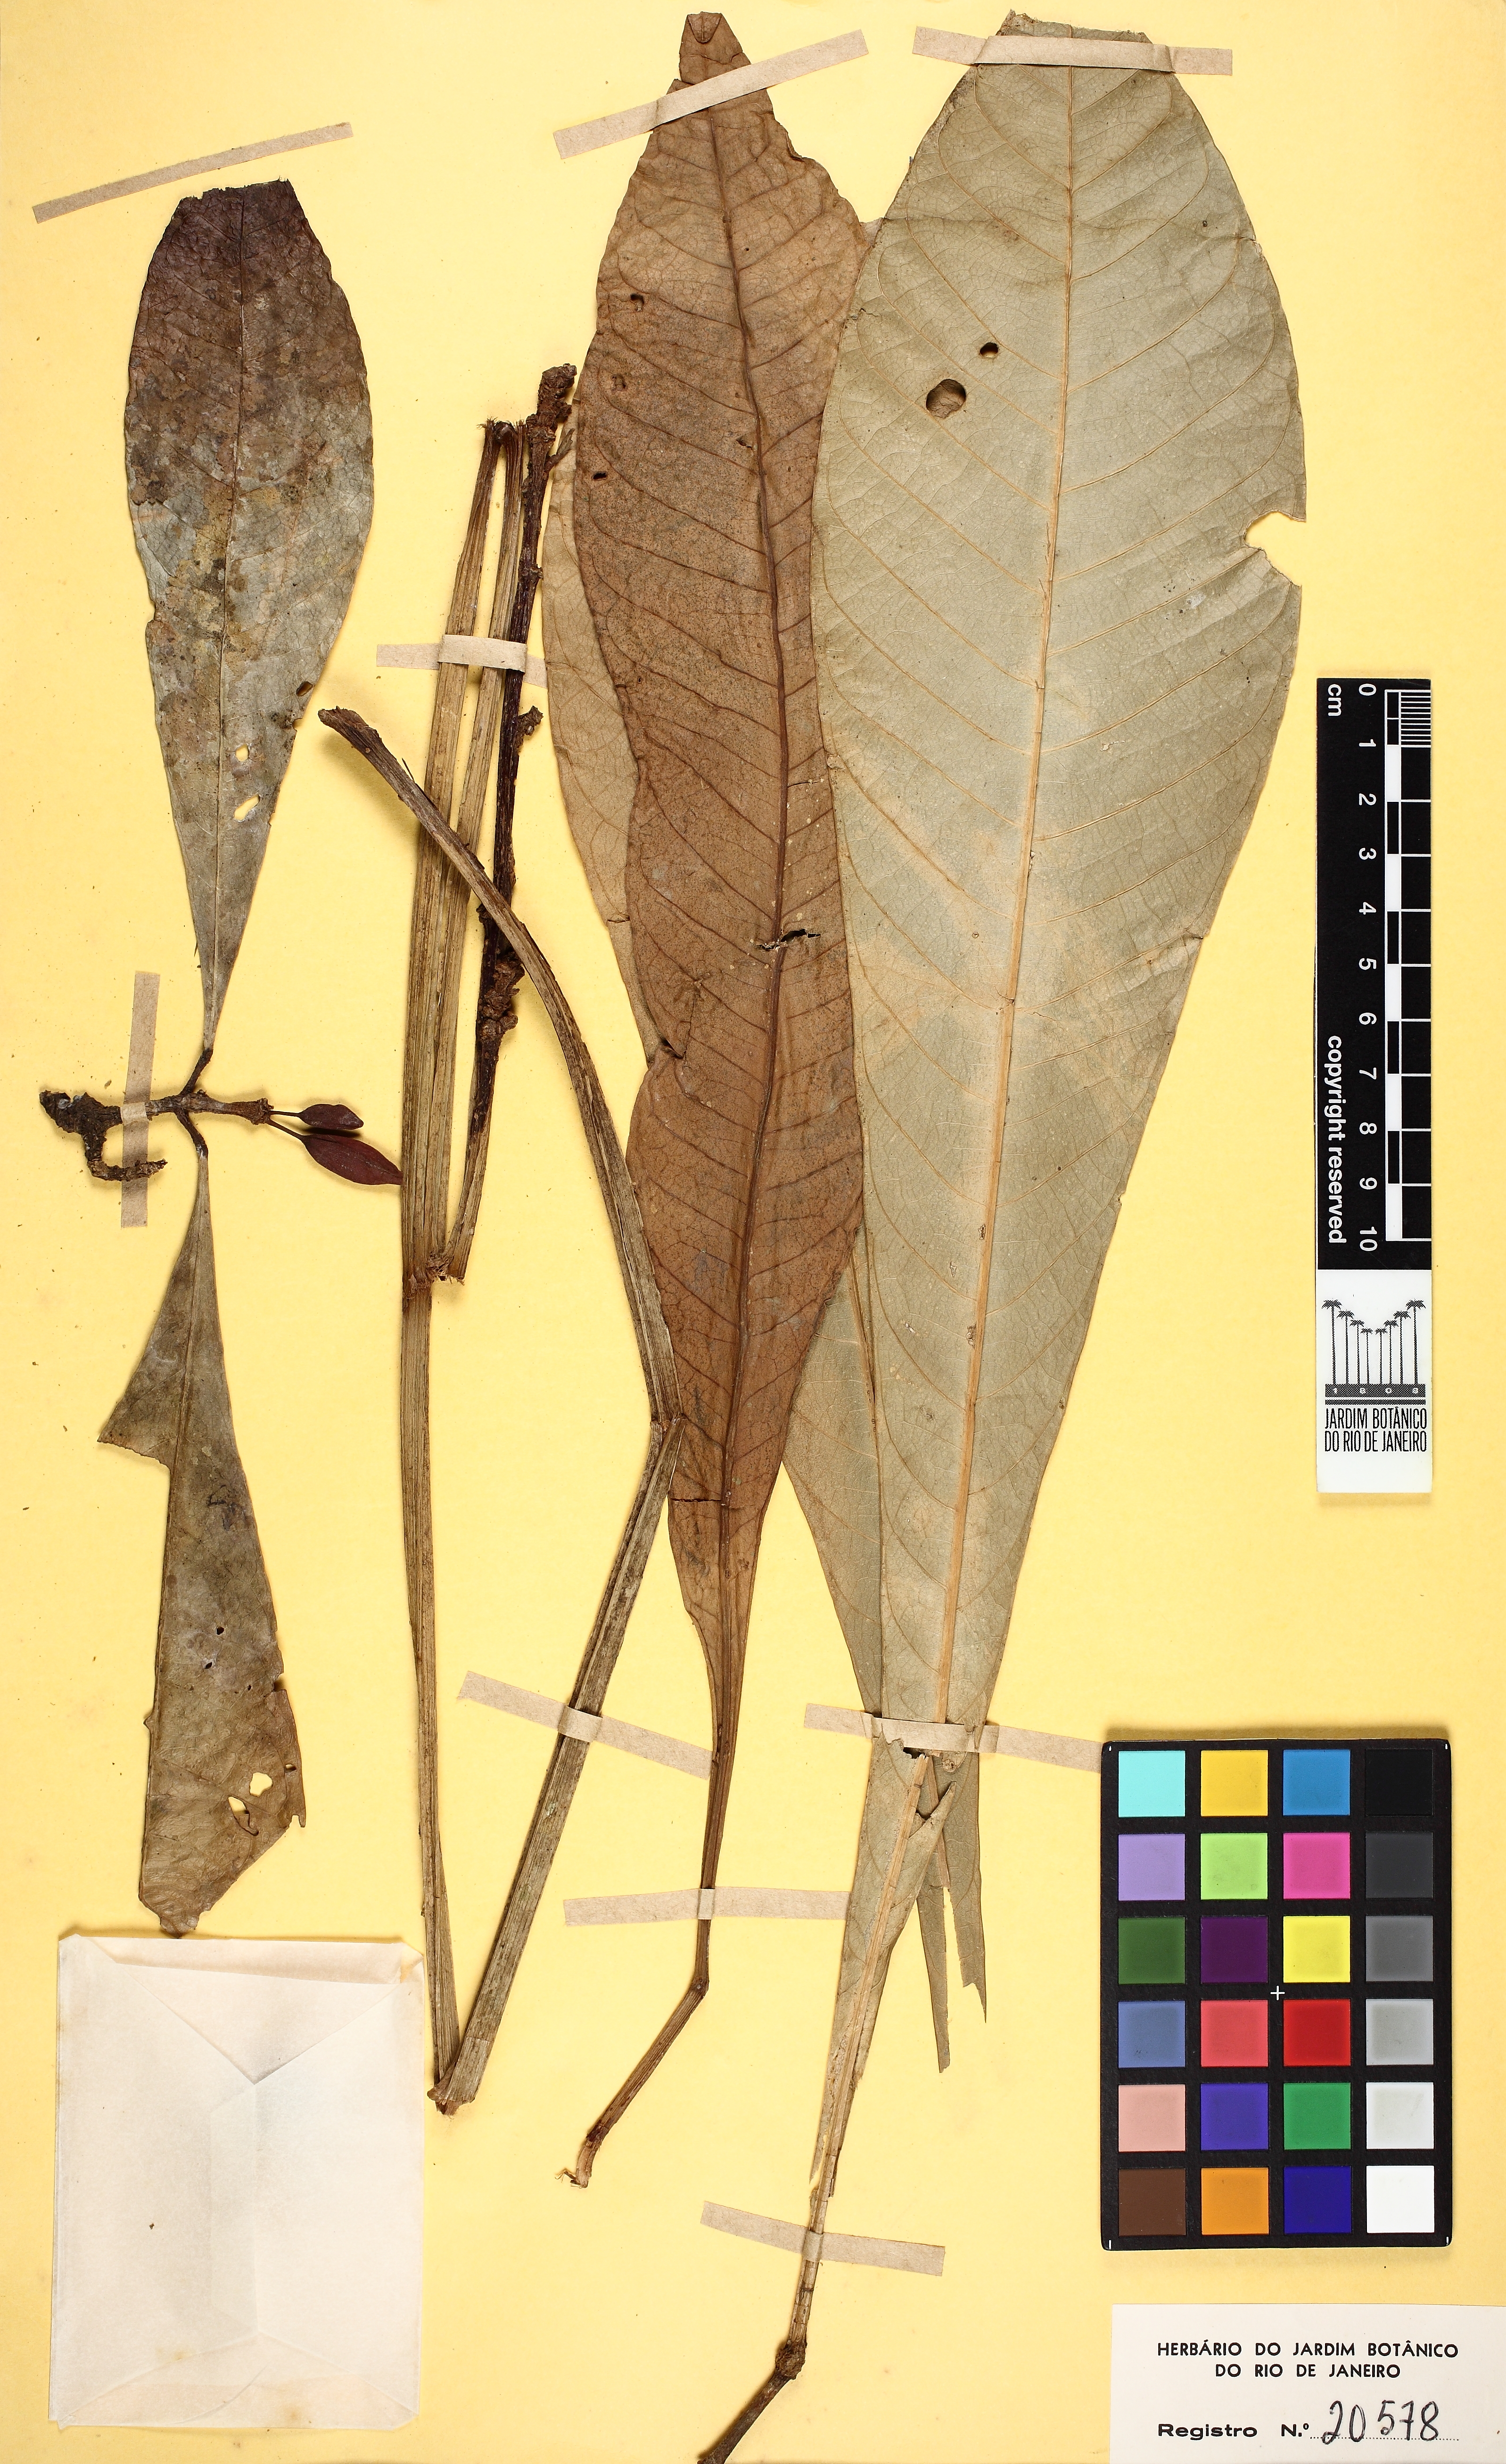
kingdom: Plantae
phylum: Tracheophyta
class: Magnoliopsida
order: Sapindales
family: Rutaceae
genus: Erythrochiton
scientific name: Erythrochiton brasiliensis
